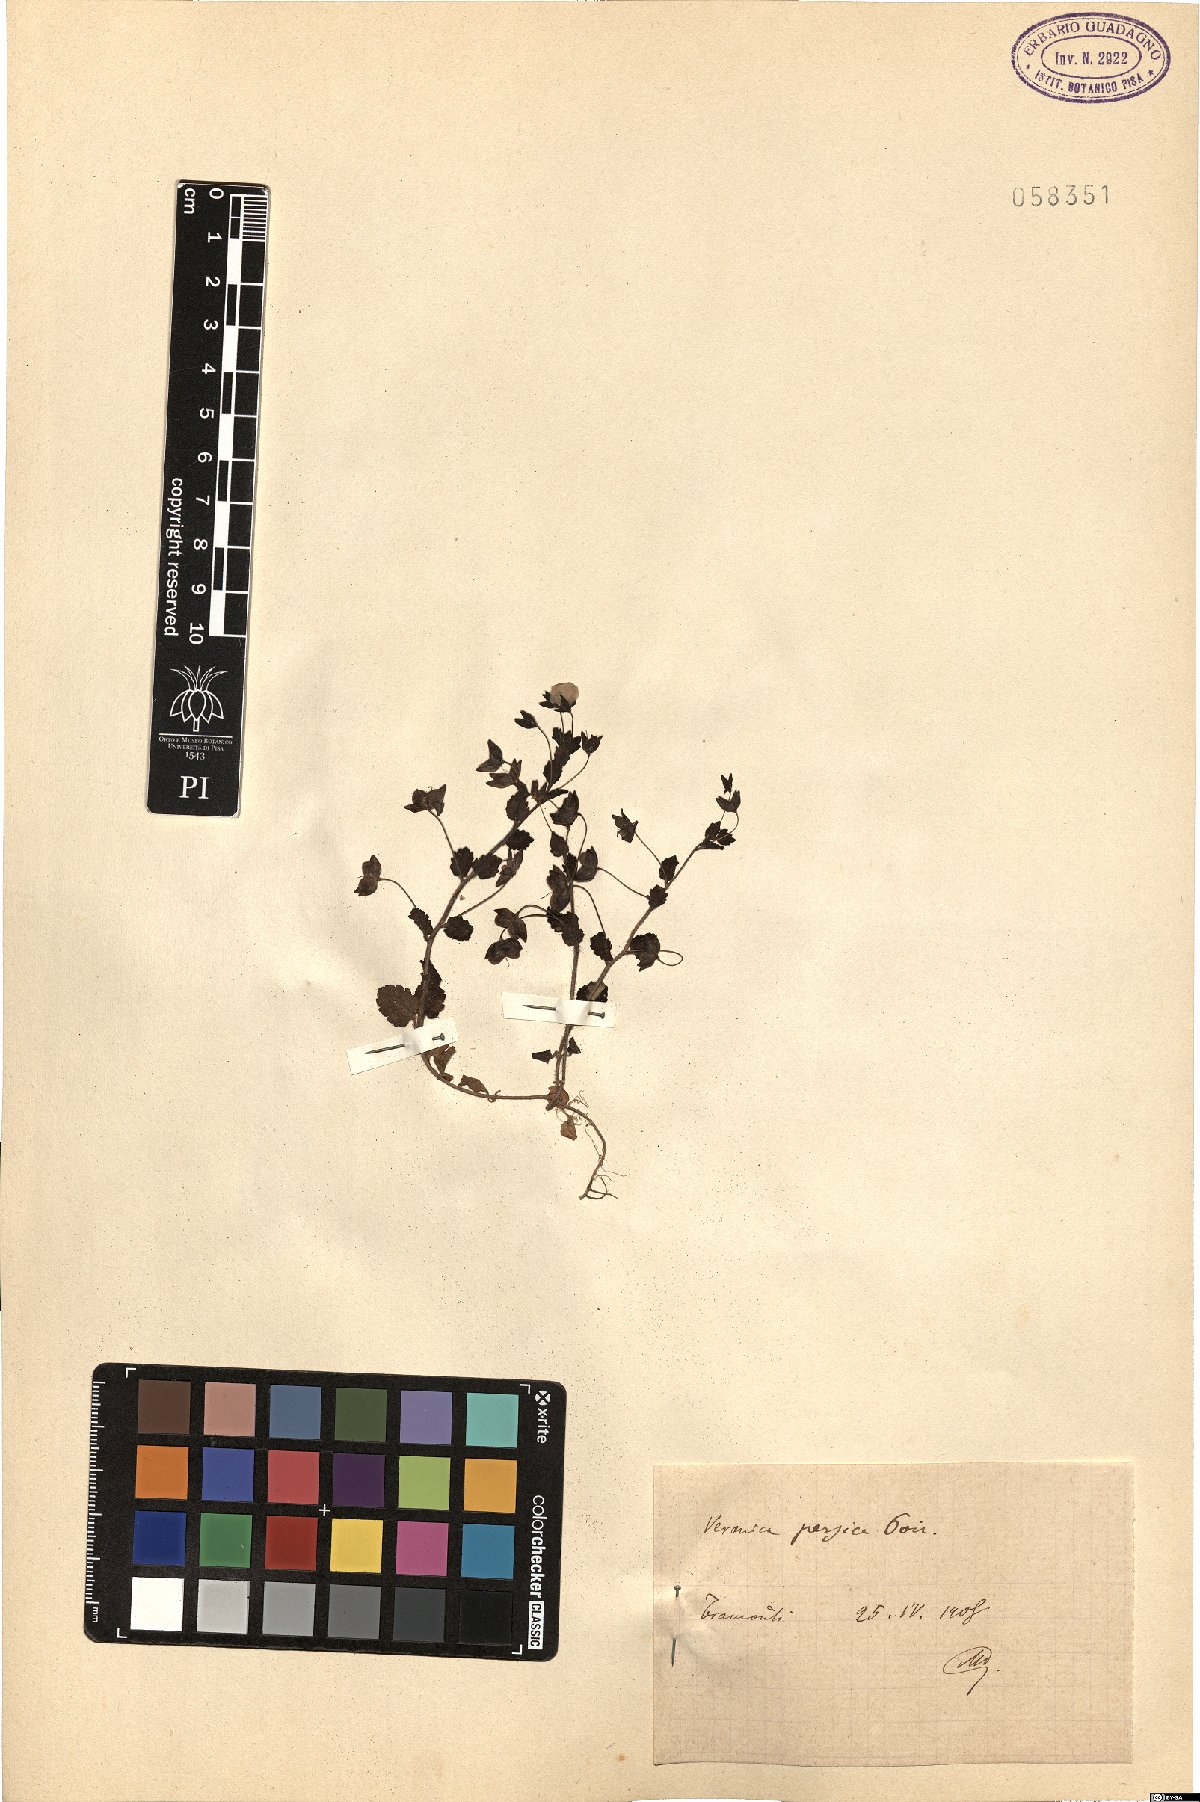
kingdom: Plantae
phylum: Tracheophyta
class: Magnoliopsida
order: Lamiales
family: Plantaginaceae
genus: Veronica
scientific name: Veronica persica
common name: Common field-speedwell
